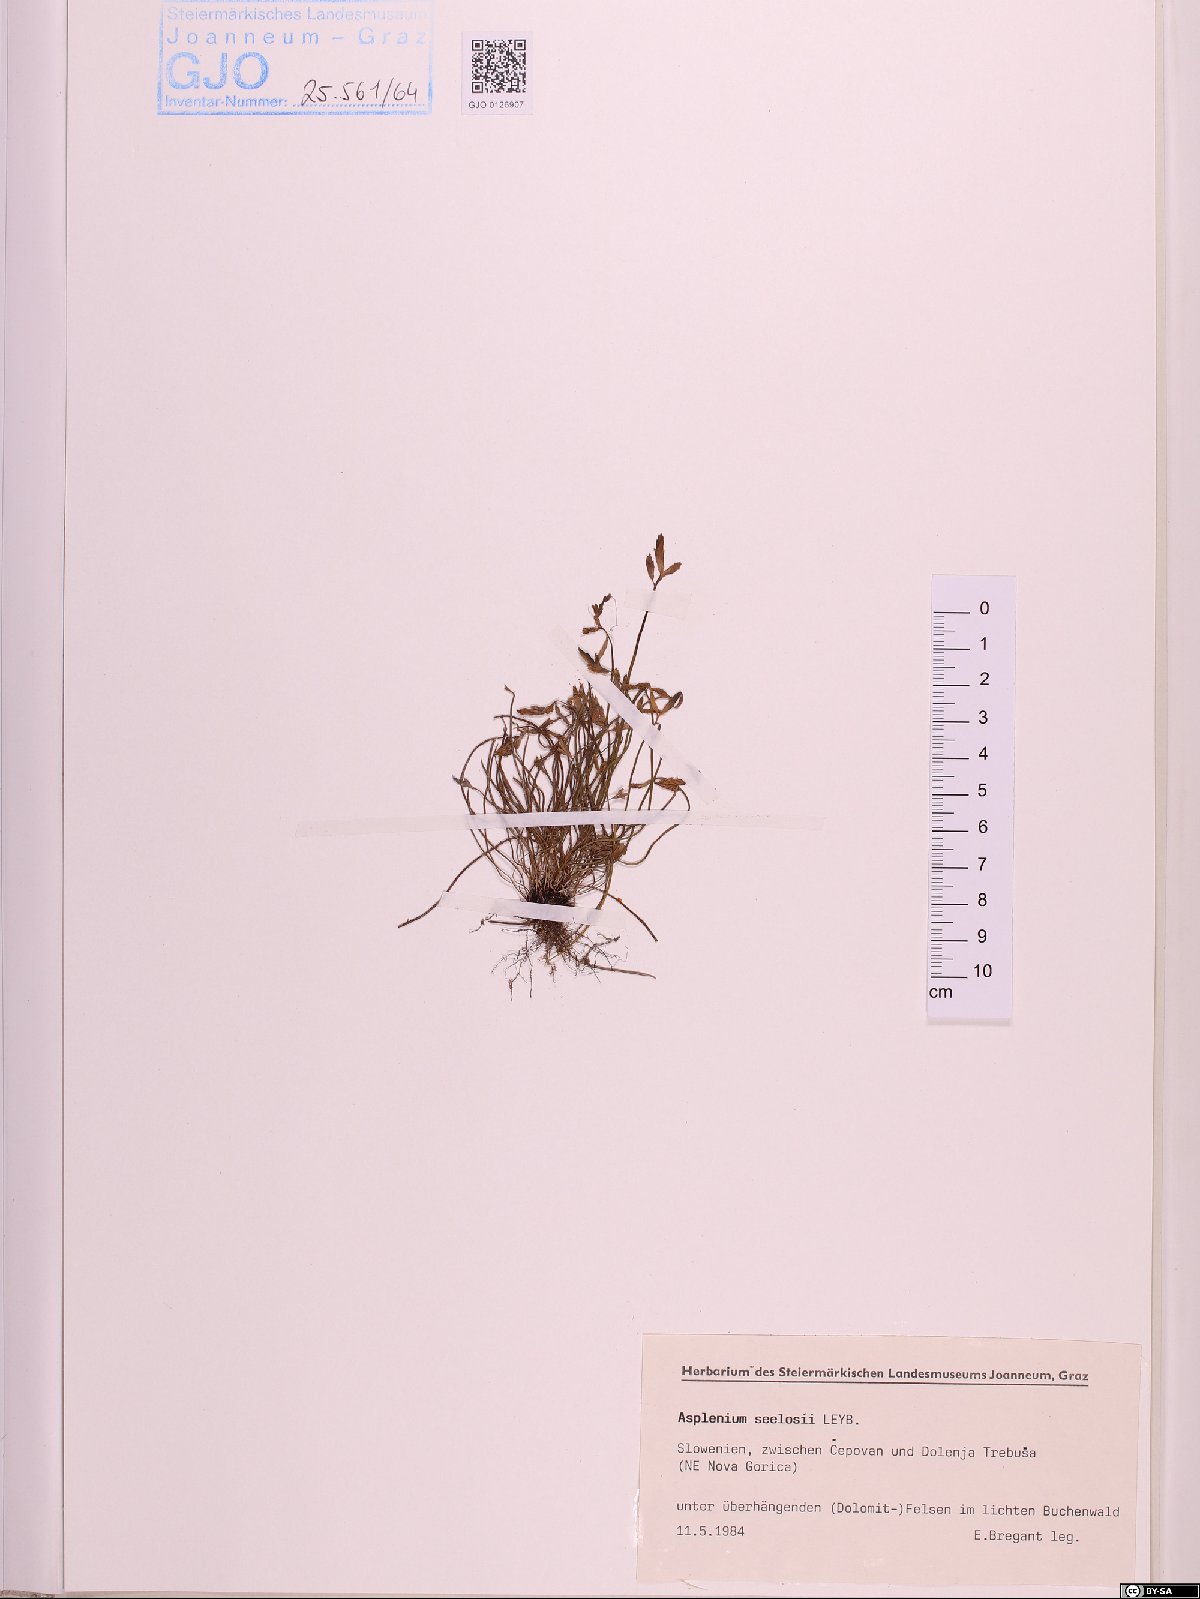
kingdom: Plantae
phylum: Tracheophyta
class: Polypodiopsida
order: Polypodiales
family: Aspleniaceae
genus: Asplenium
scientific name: Asplenium seelosii
